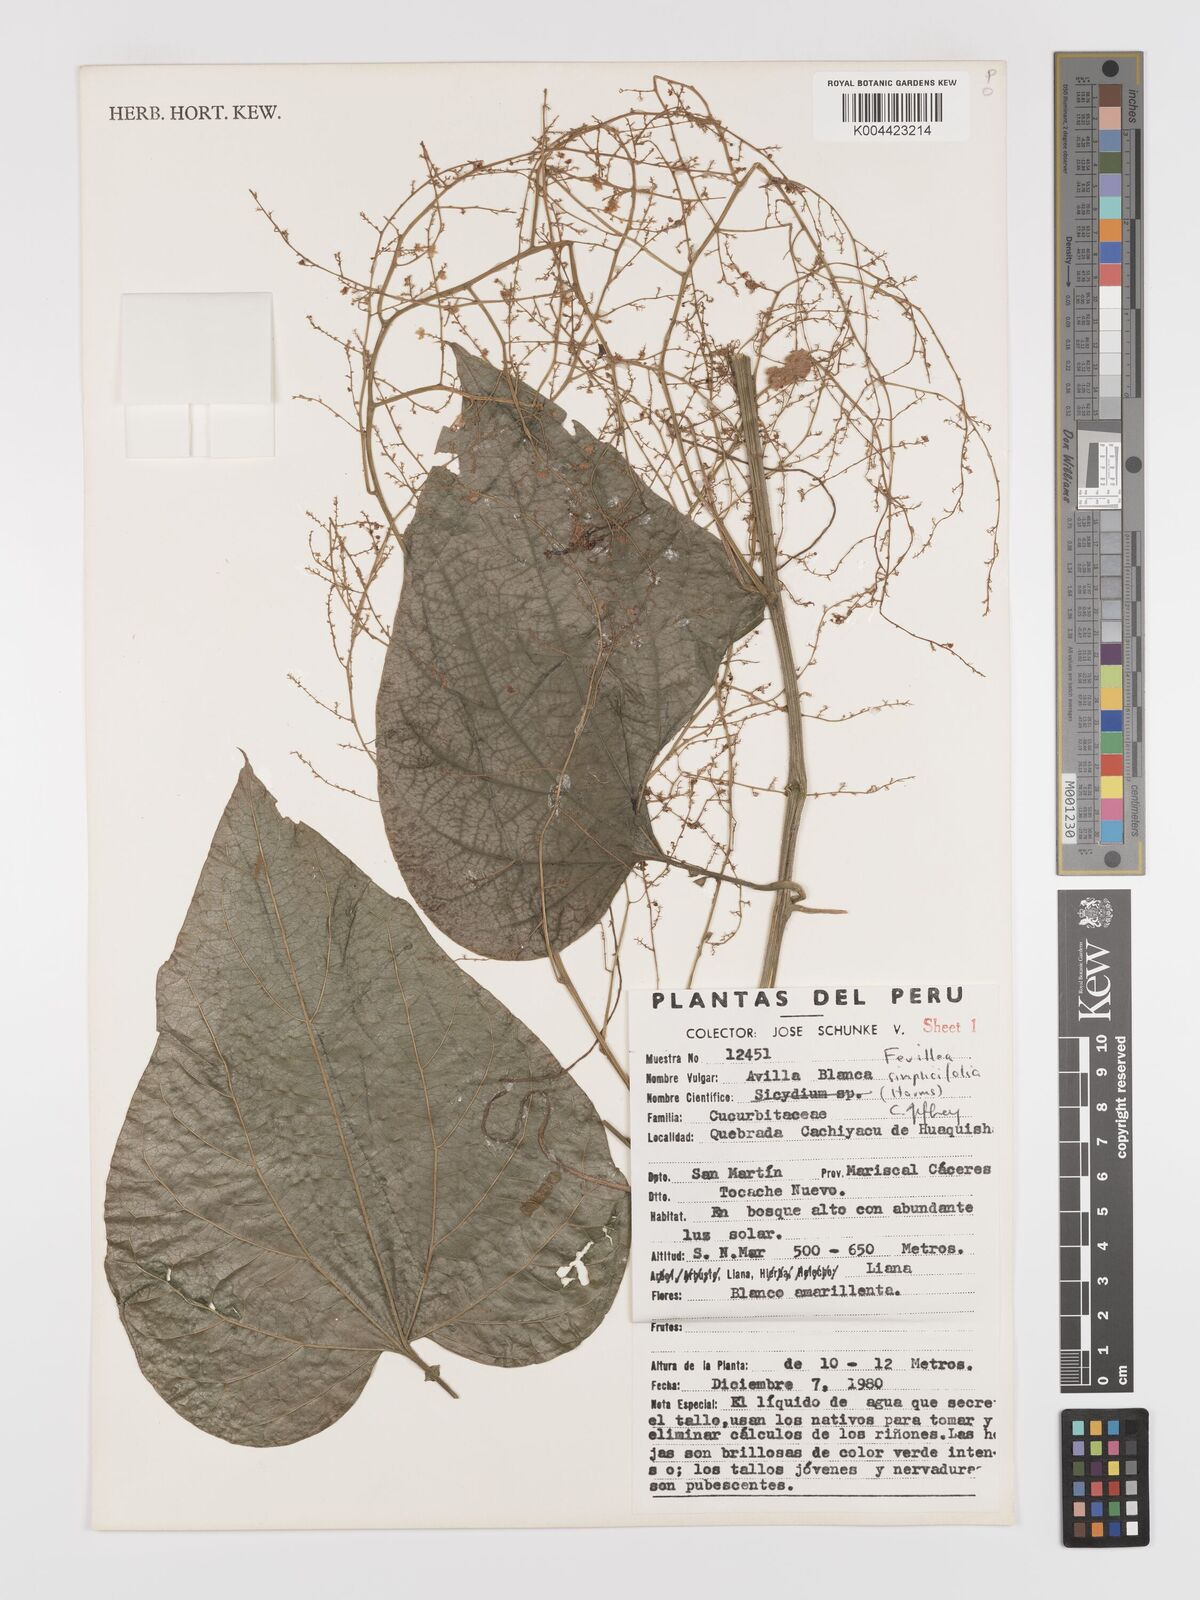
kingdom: Plantae
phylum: Tracheophyta
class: Magnoliopsida
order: Cucurbitales
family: Cucurbitaceae
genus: Fevillea
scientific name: Fevillea pedatifolia
